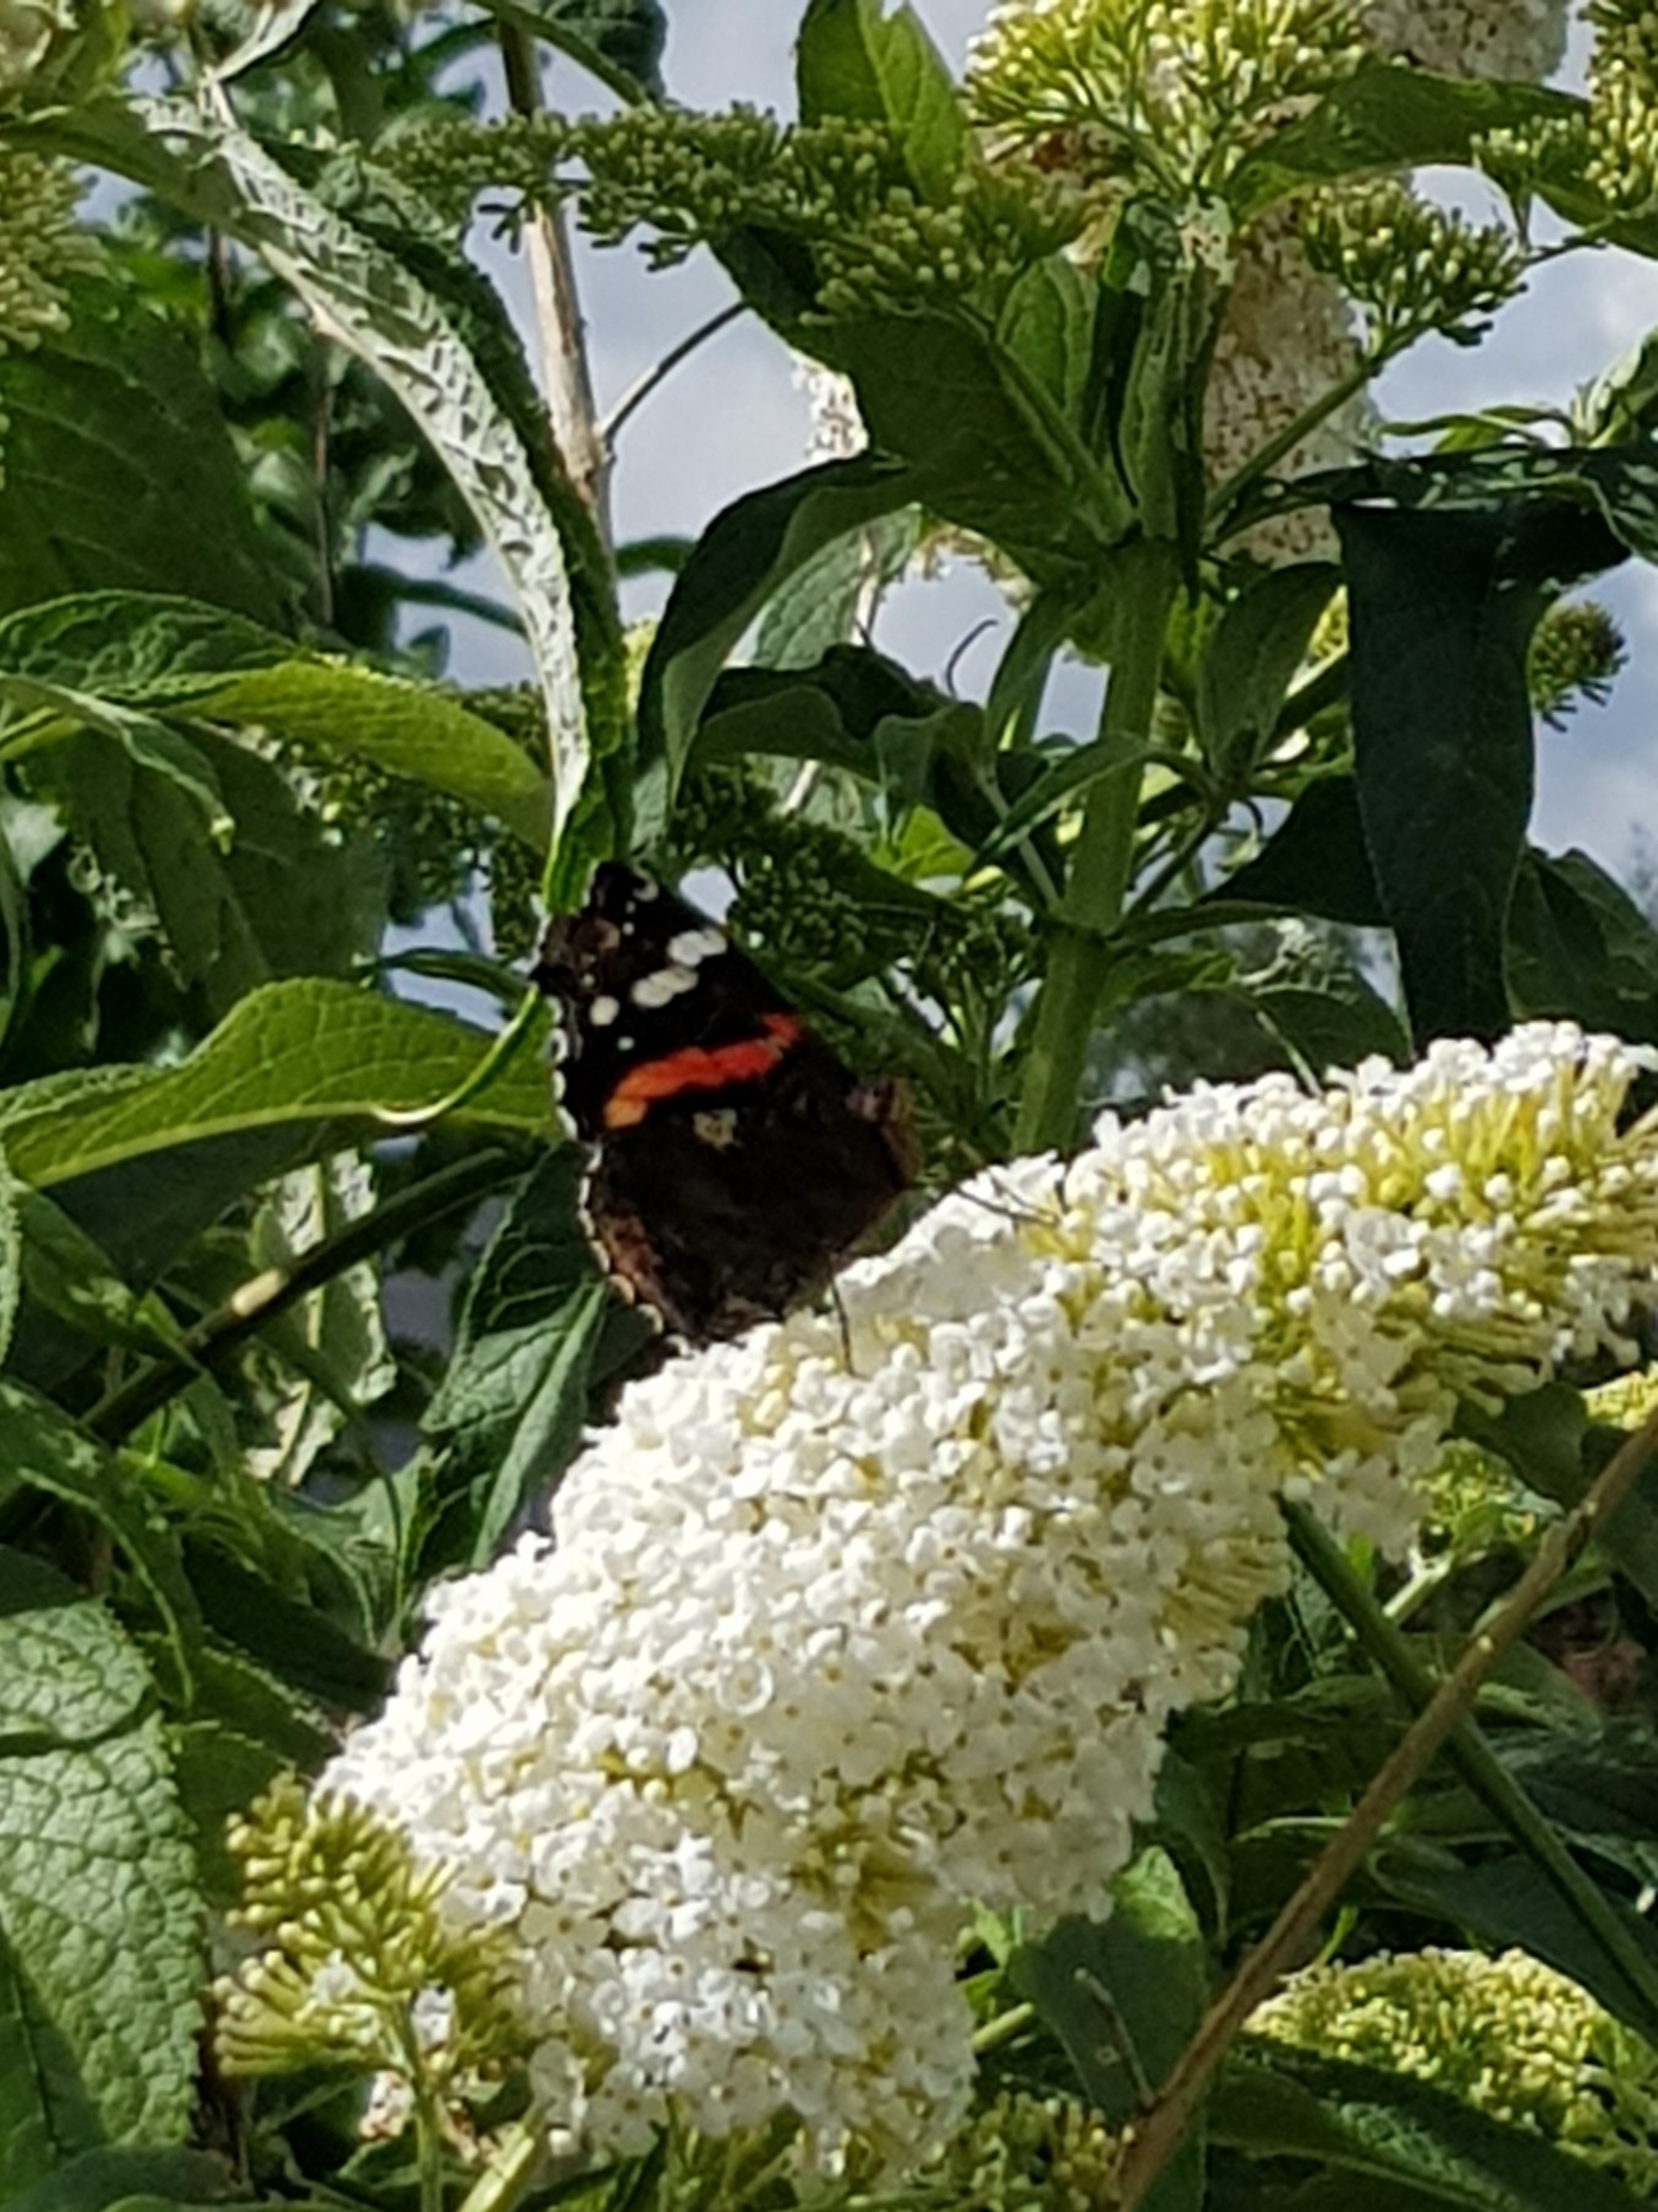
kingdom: Animalia
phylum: Arthropoda
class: Insecta
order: Lepidoptera
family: Nymphalidae
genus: Vanessa
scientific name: Vanessa atalanta
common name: Admiral
